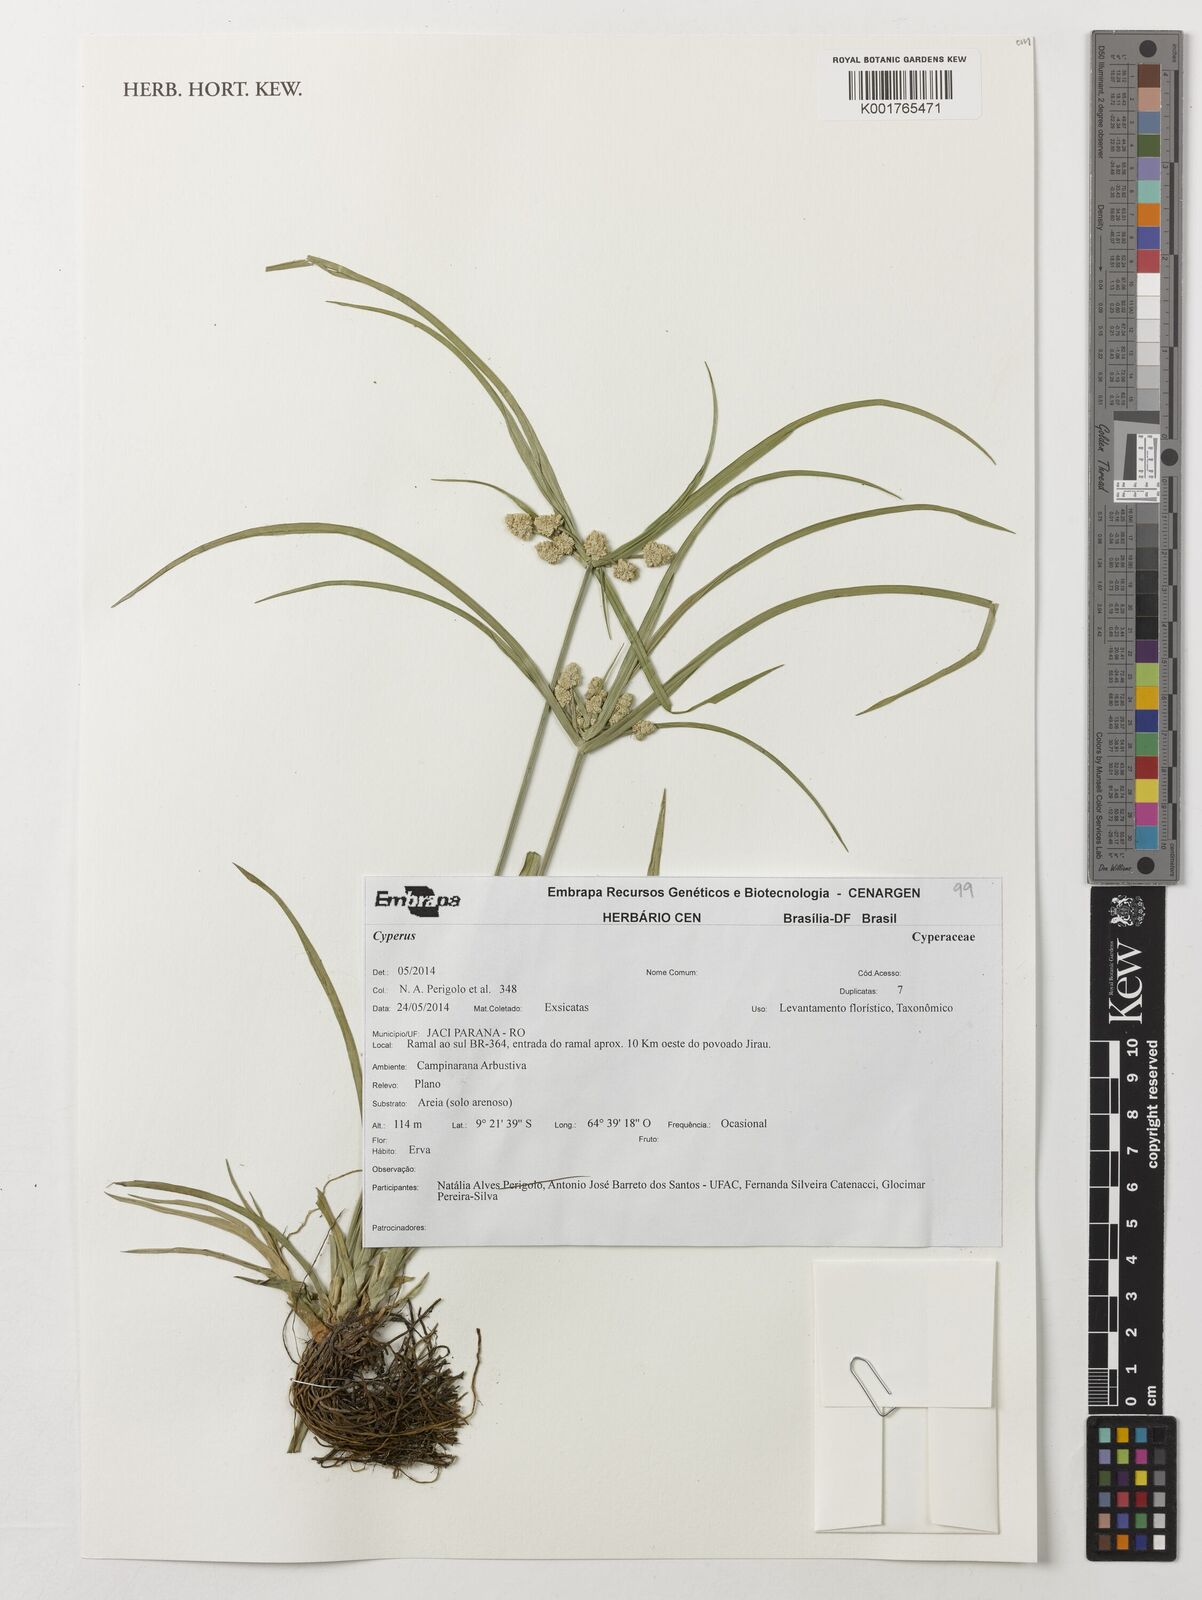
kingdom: Plantae
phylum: Tracheophyta
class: Liliopsida
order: Poales
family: Cyperaceae
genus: Cyperus
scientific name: Cyperus
